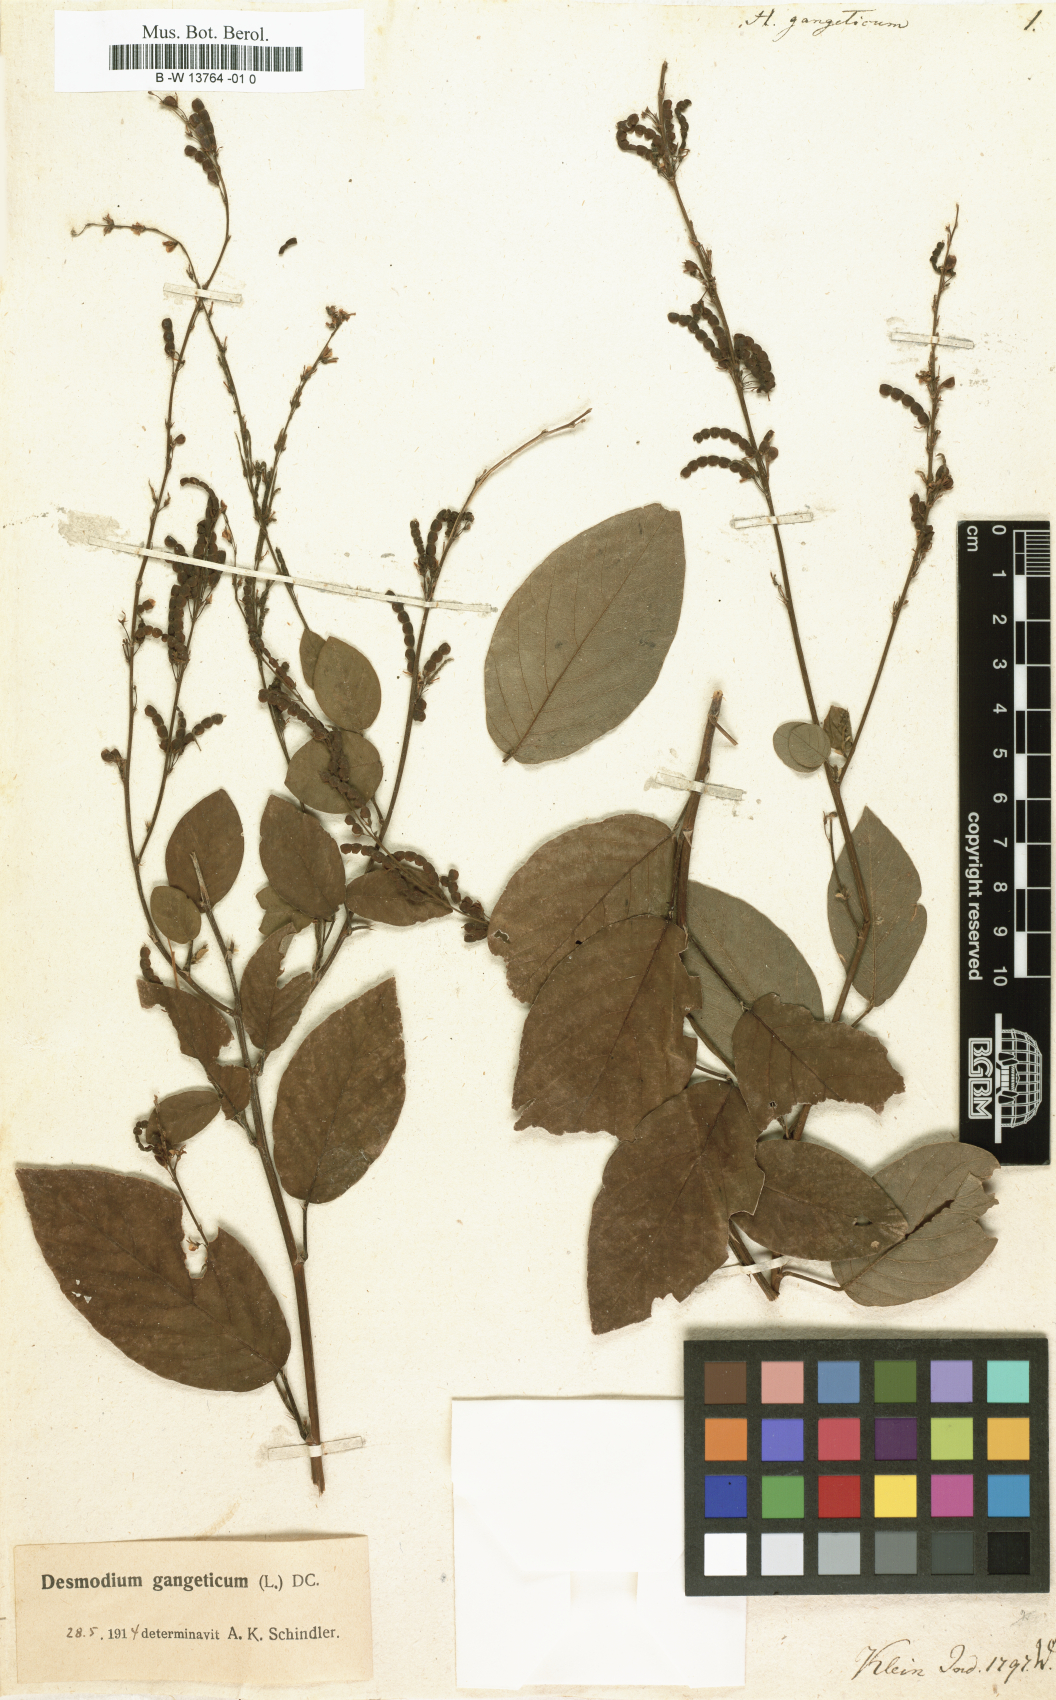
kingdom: Plantae
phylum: Tracheophyta
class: Magnoliopsida
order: Fabales
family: Fabaceae
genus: Pleurolobus
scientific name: Pleurolobus gangeticus
